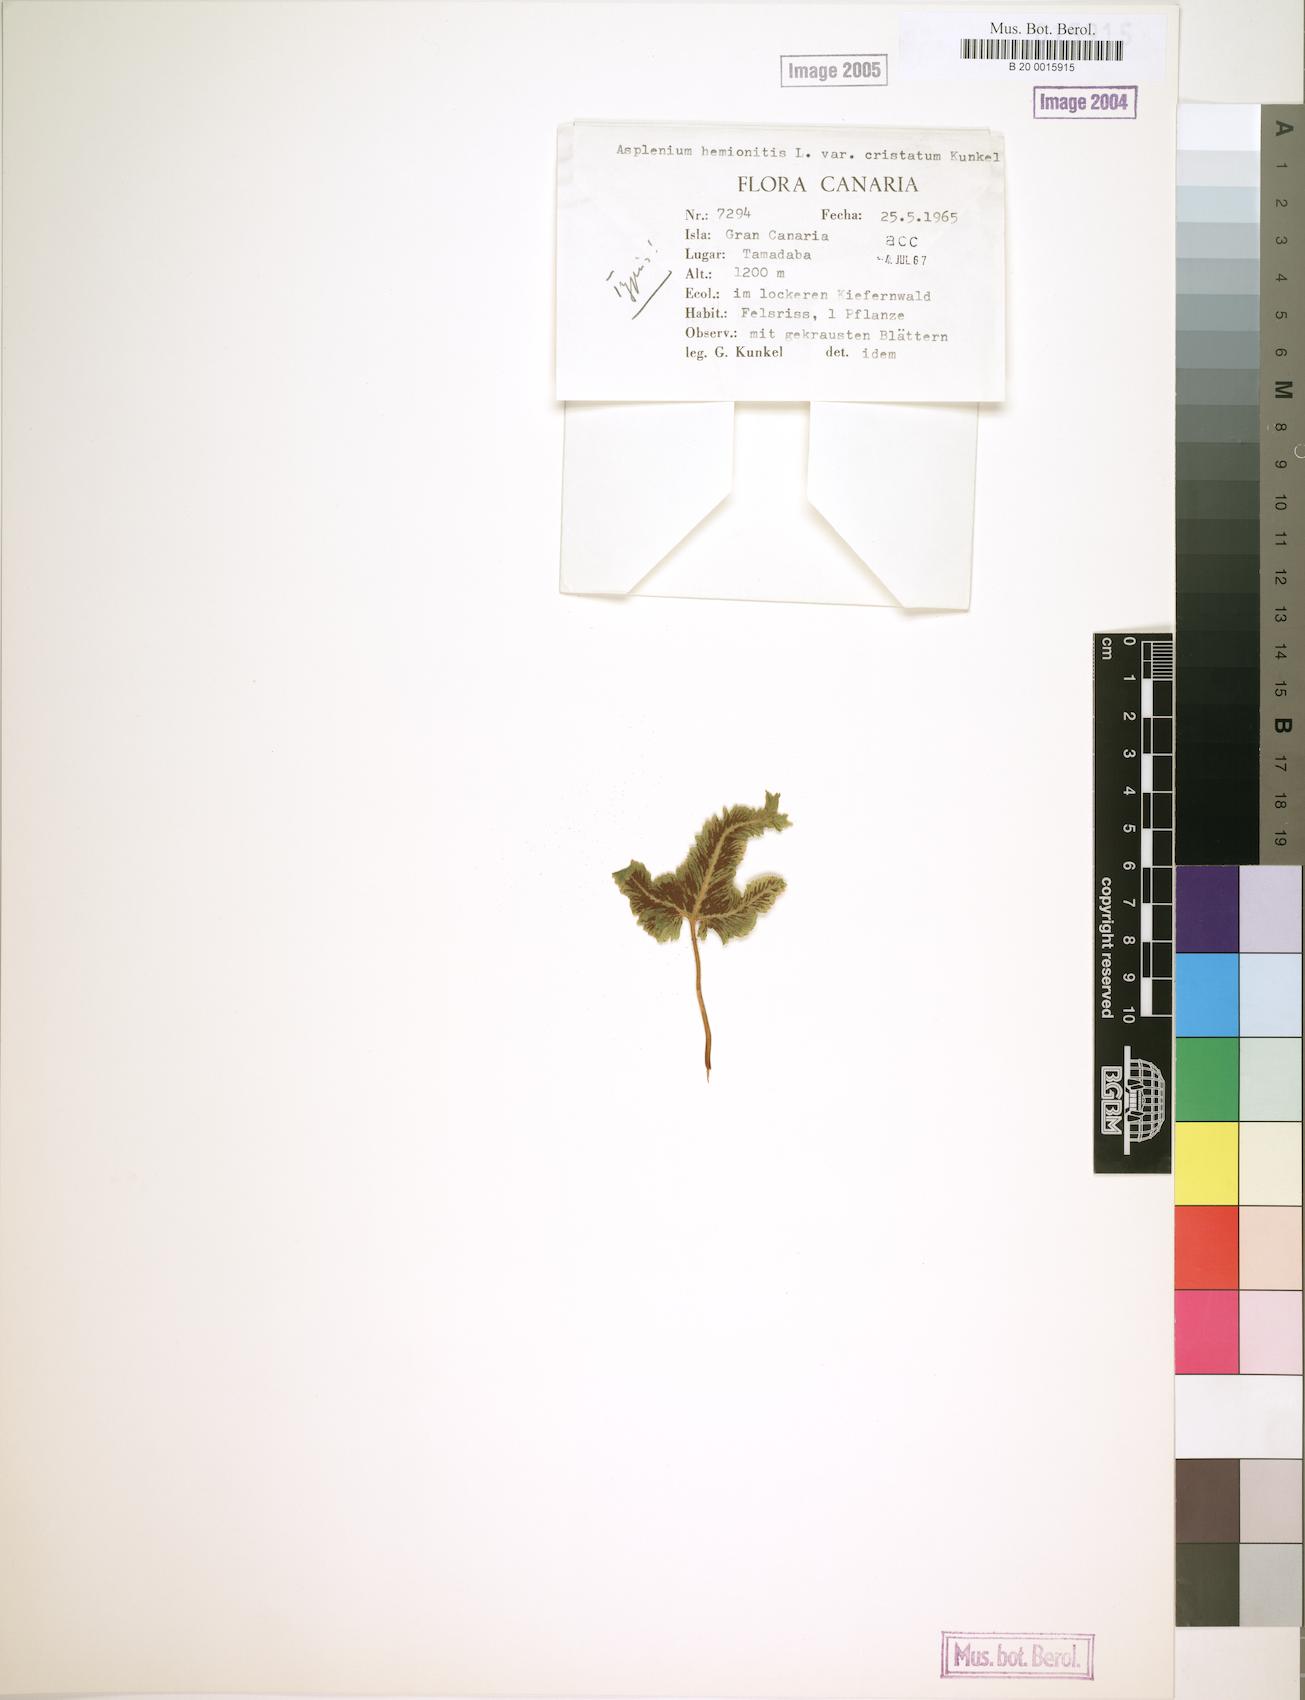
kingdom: Plantae
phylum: Tracheophyta
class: Polypodiopsida
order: Polypodiales
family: Aspleniaceae
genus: Asplenium
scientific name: Asplenium hemionitis
